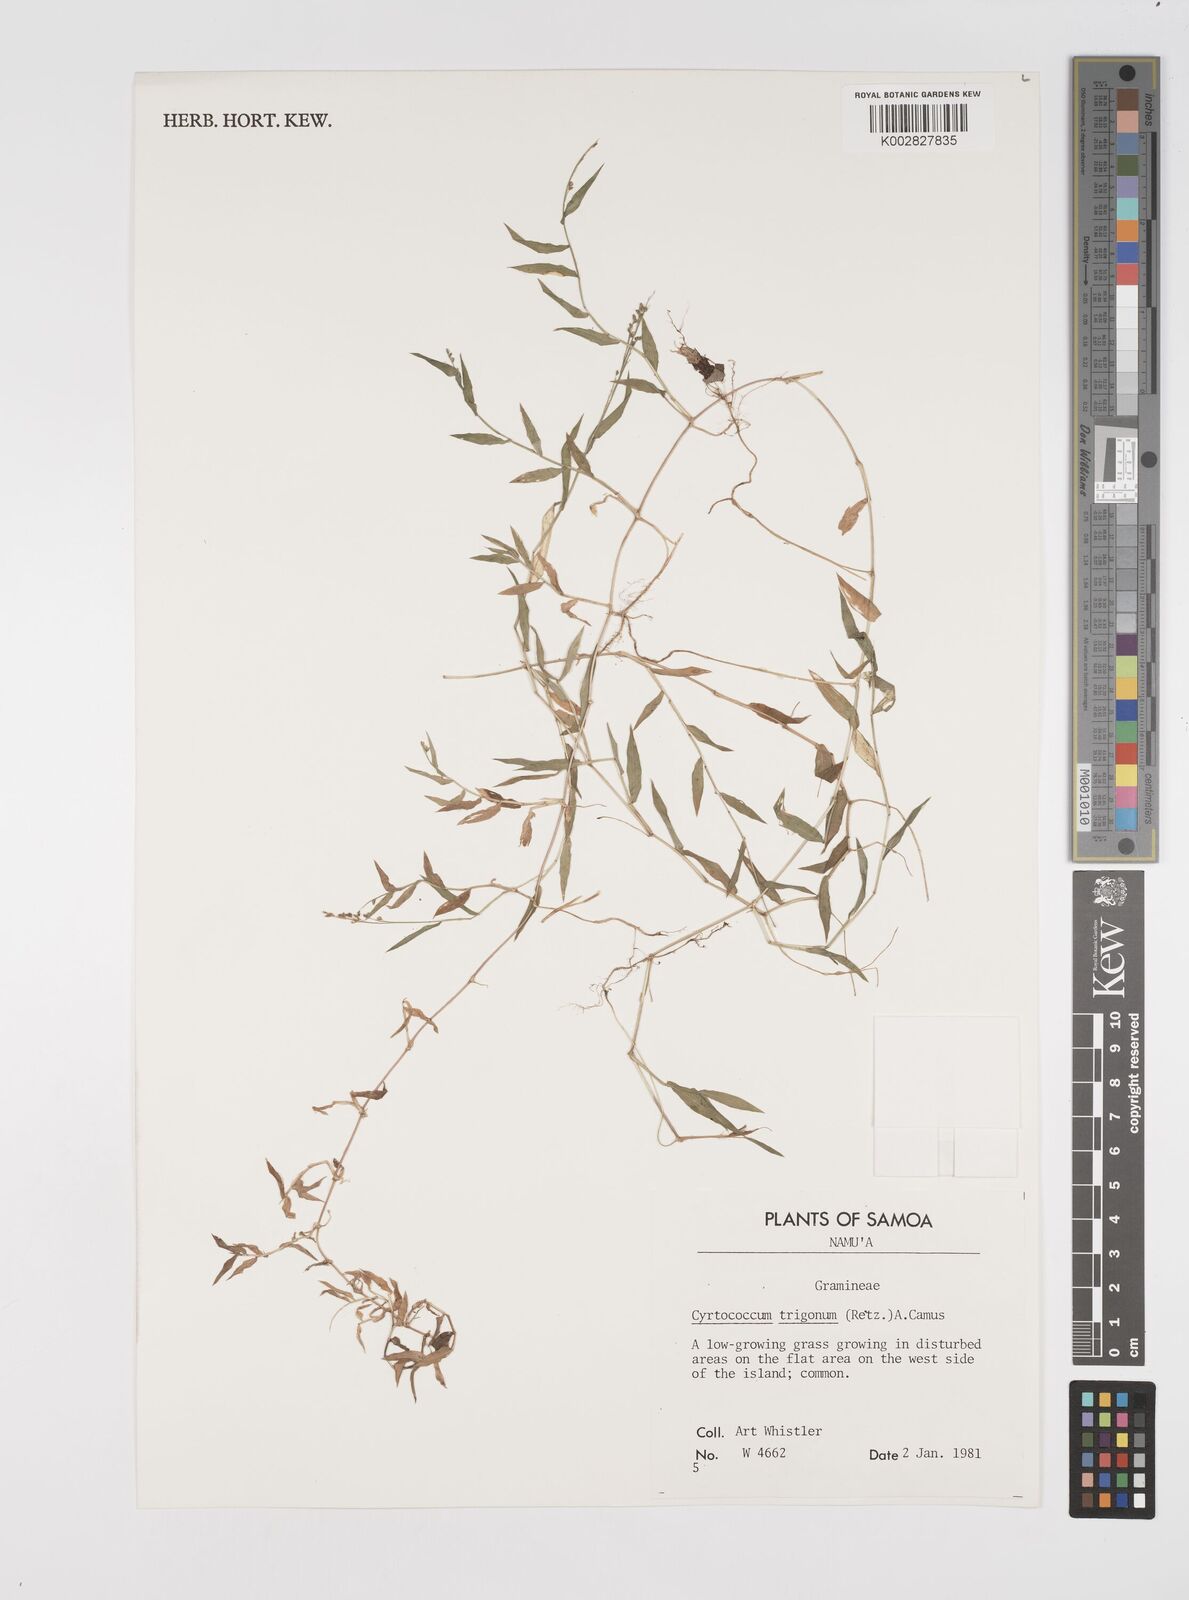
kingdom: Plantae
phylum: Tracheophyta
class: Liliopsida
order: Poales
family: Poaceae
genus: Cyrtococcum
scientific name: Cyrtococcum trigonum
